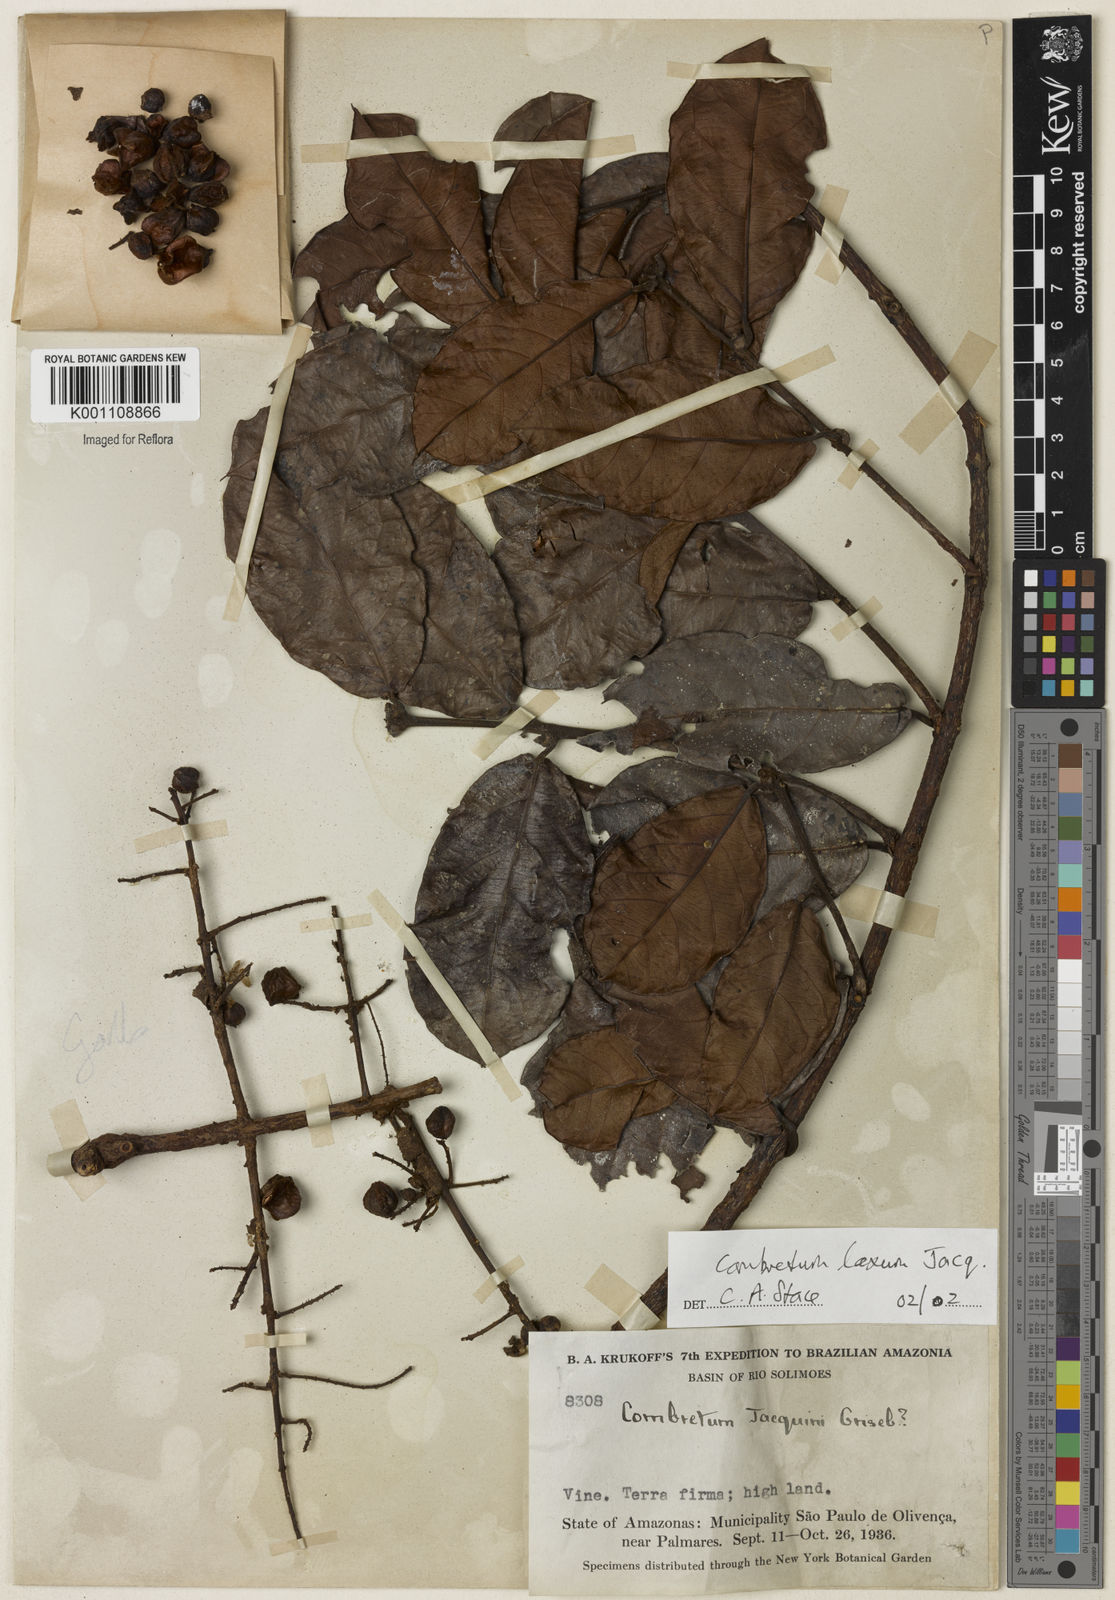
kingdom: Plantae
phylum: Tracheophyta
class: Magnoliopsida
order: Myrtales
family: Combretaceae
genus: Combretum
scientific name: Combretum laxum
